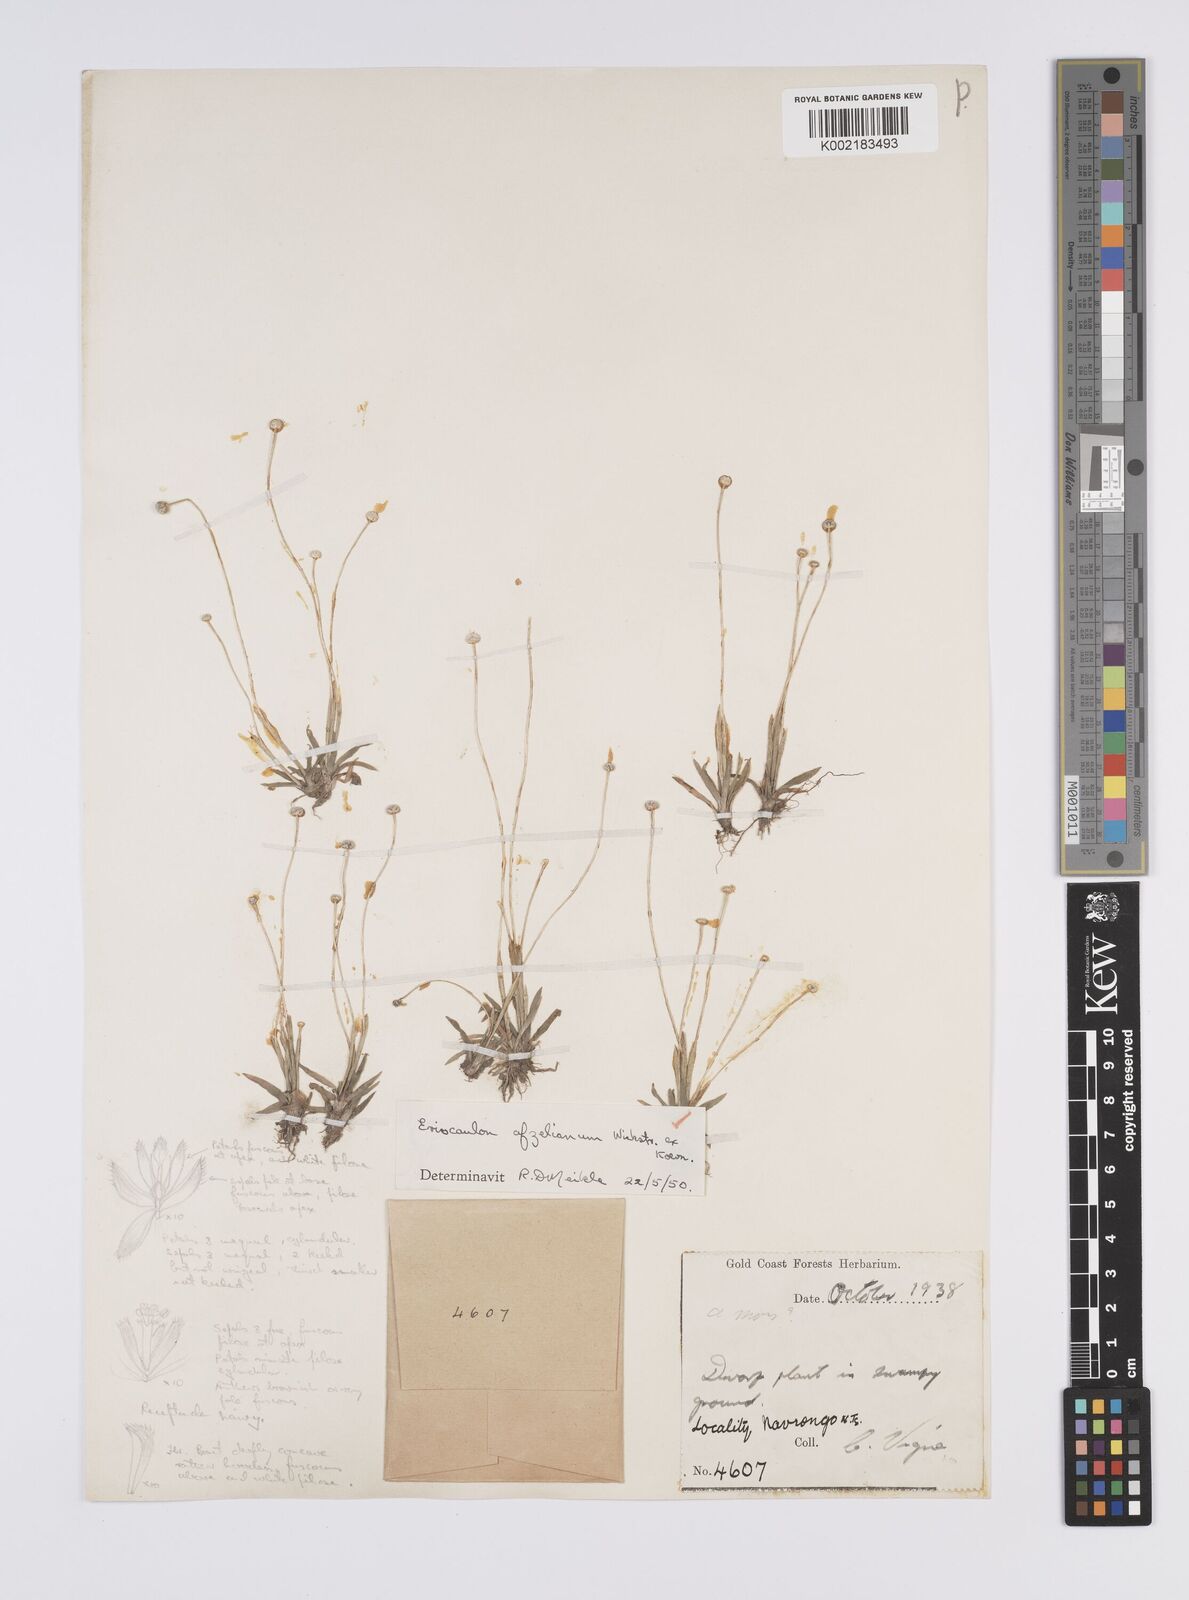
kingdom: Plantae
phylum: Tracheophyta
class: Liliopsida
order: Poales
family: Eriocaulaceae
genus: Eriocaulon
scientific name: Eriocaulon afzelianum
